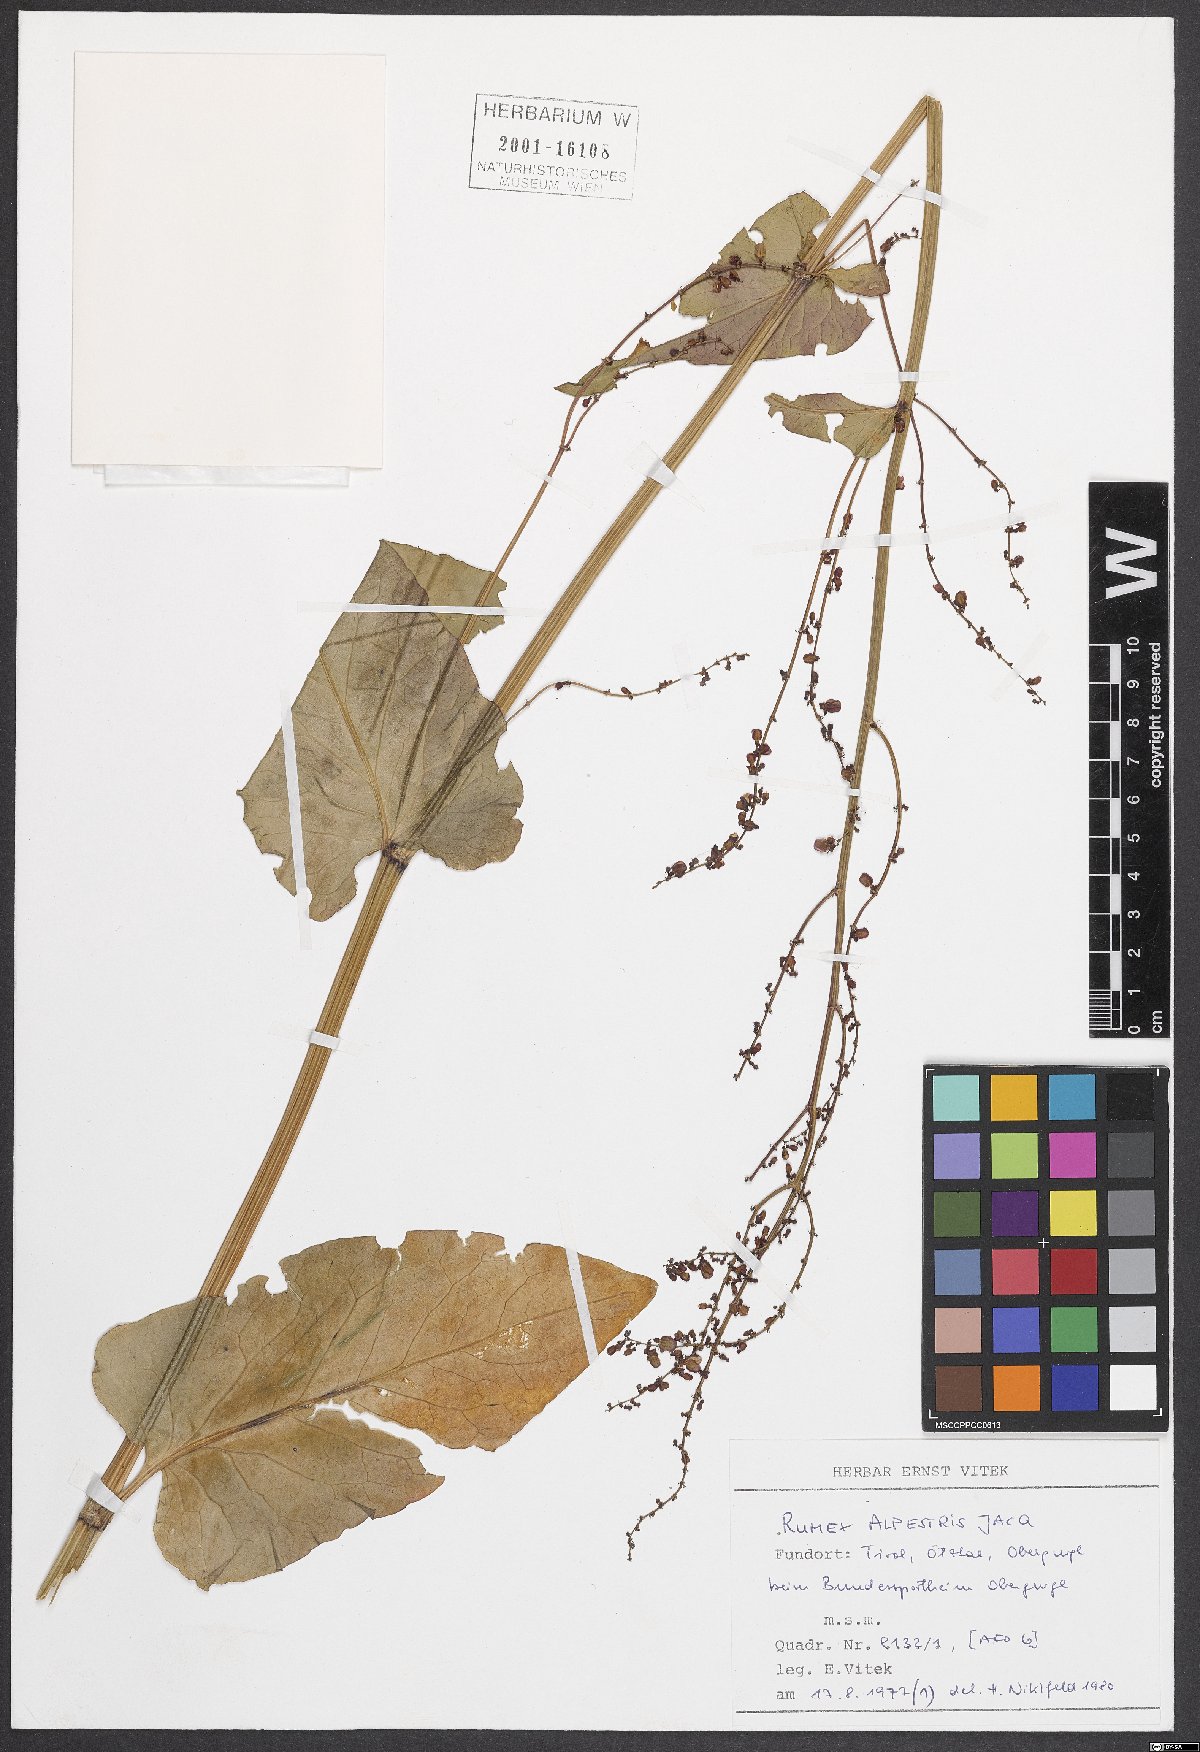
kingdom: Plantae
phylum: Tracheophyta
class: Magnoliopsida
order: Caryophyllales
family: Polygonaceae
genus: Rumex
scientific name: Rumex scutatus
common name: French sorrel
